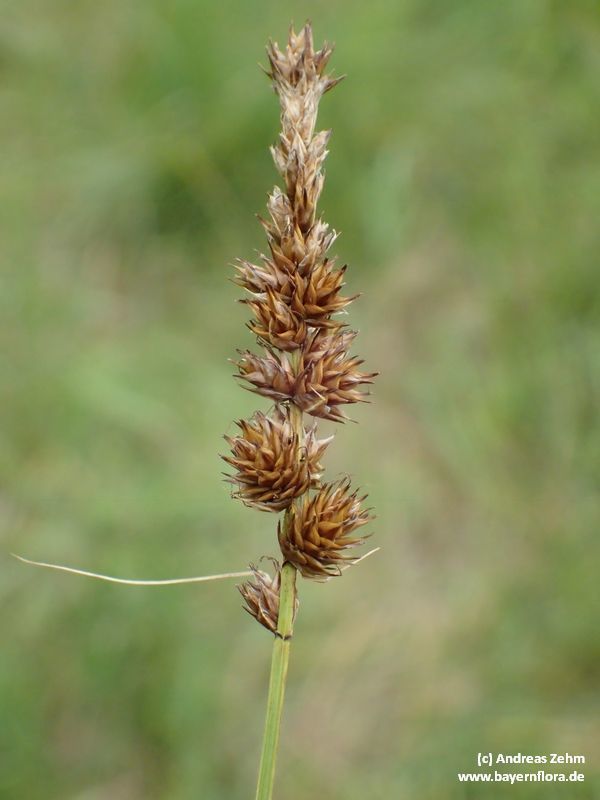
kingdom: Plantae
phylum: Tracheophyta
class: Liliopsida
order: Poales
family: Cyperaceae
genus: Carex
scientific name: Carex disticha
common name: Brown sedge
